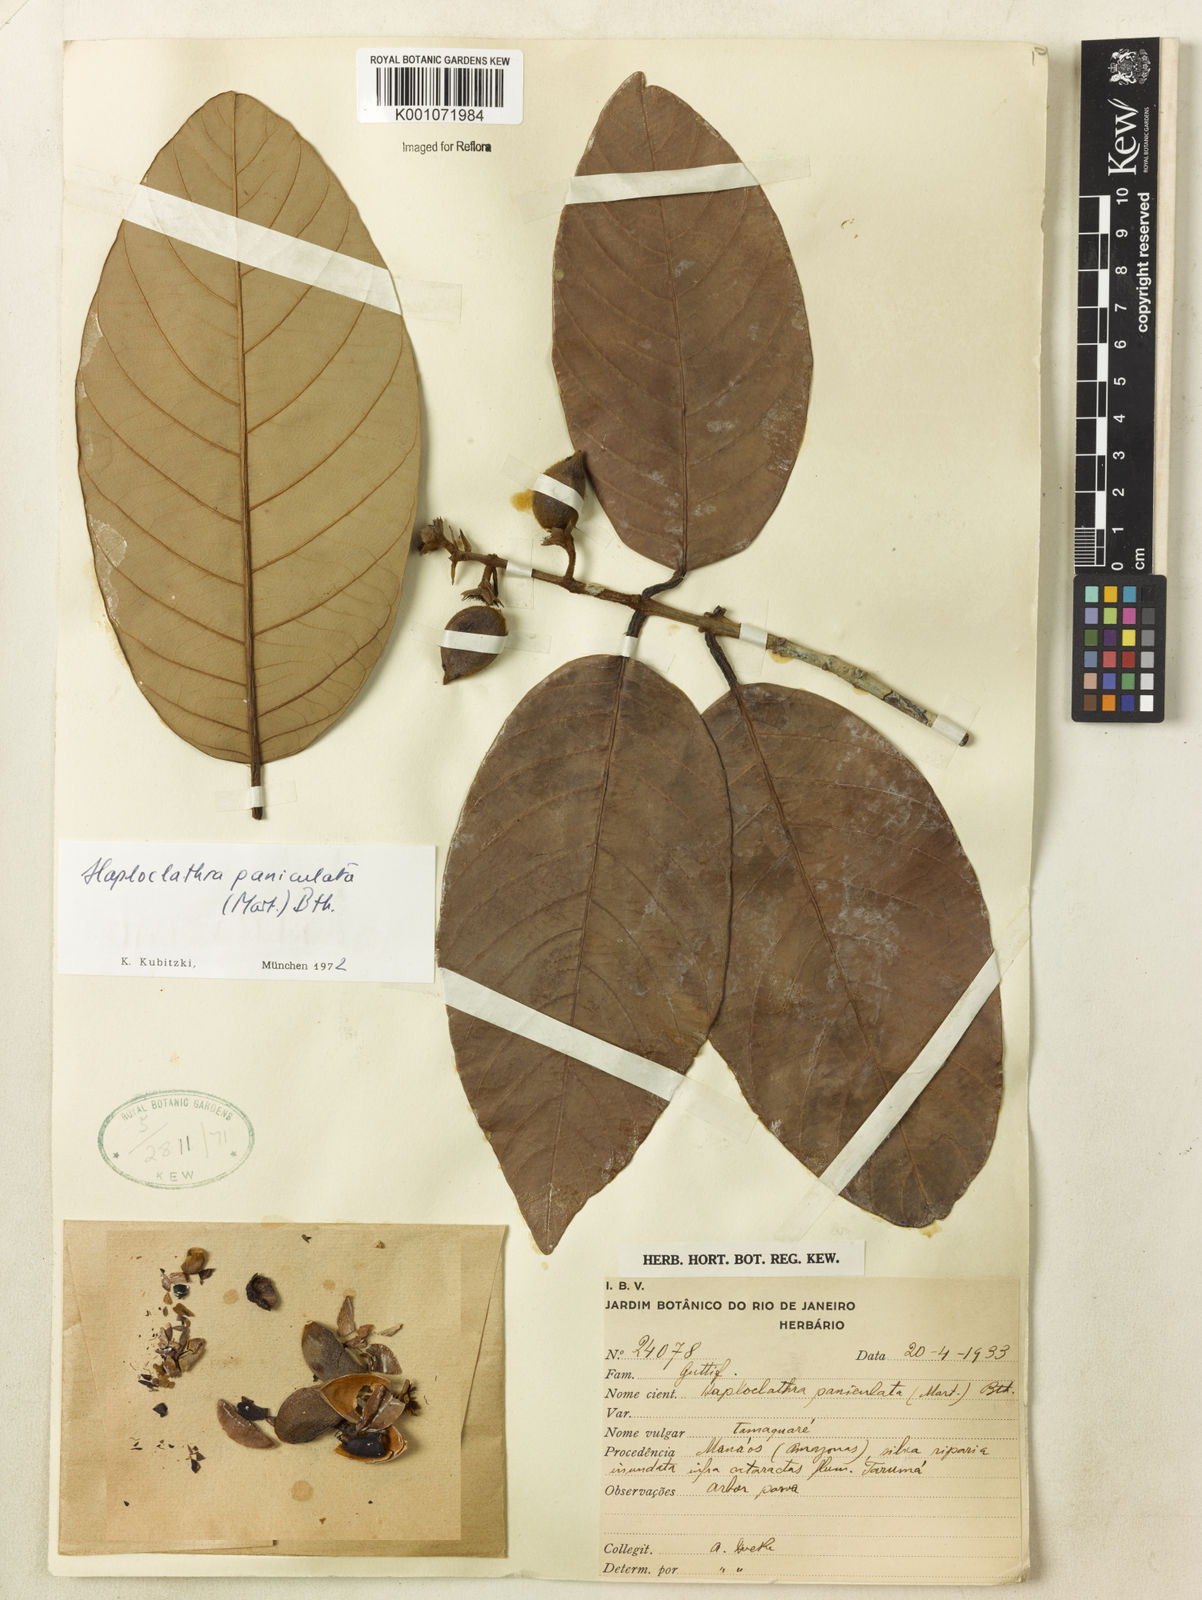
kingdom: Plantae
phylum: Tracheophyta
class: Magnoliopsida
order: Malpighiales
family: Calophyllaceae
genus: Haploclathra
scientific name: Haploclathra paniculata
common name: Red-wood
